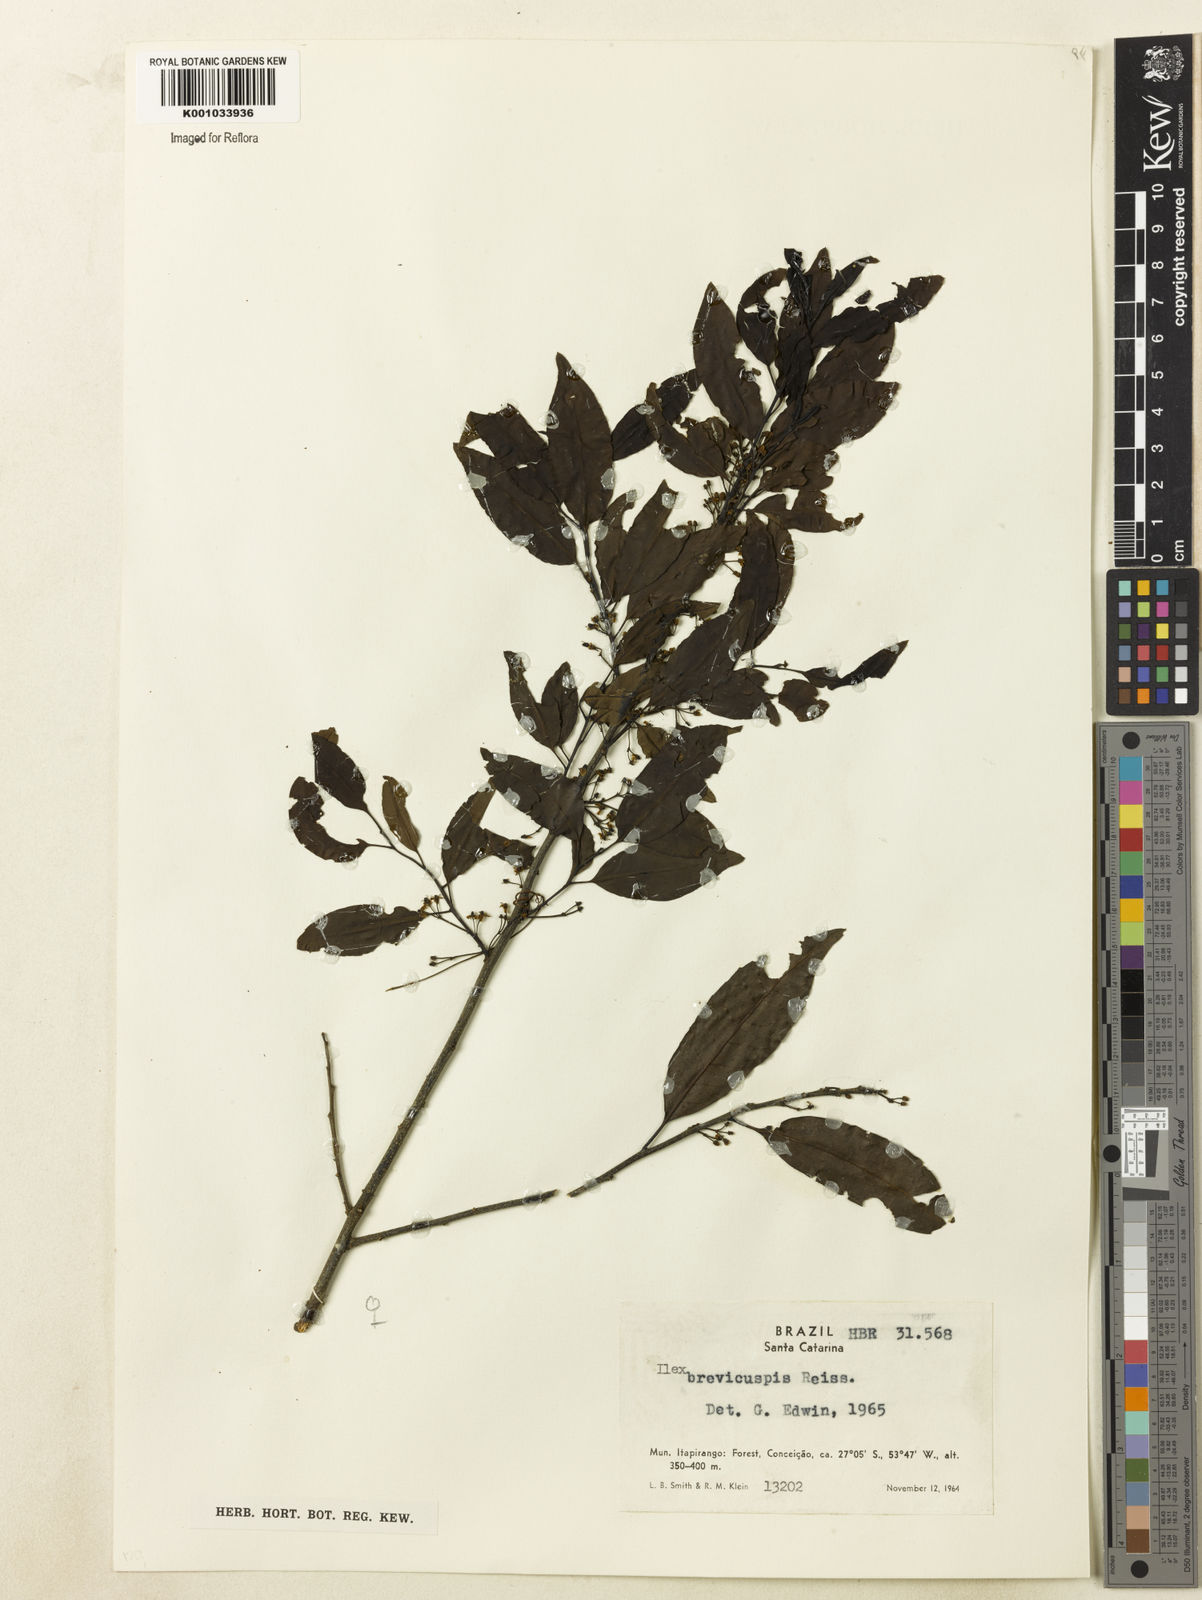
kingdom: Plantae
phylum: Tracheophyta
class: Magnoliopsida
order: Aquifoliales
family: Aquifoliaceae
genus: Ilex
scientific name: Ilex brevicuspis
